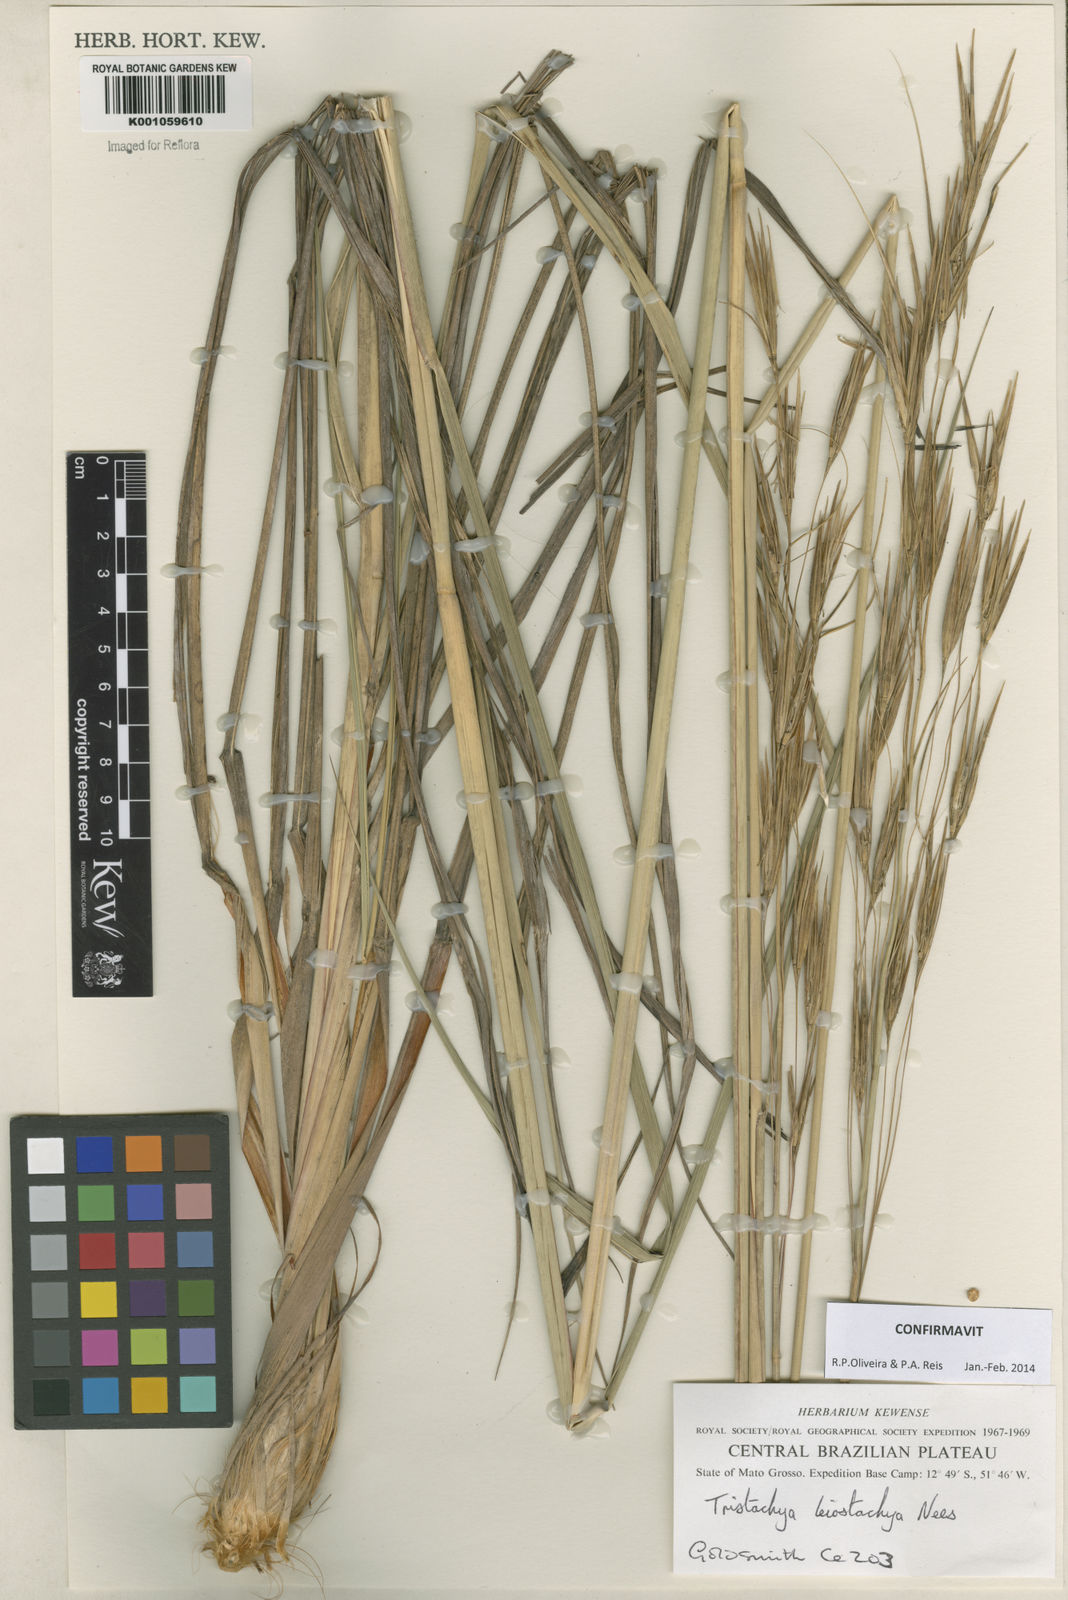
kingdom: Plantae
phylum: Tracheophyta
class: Liliopsida
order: Poales
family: Poaceae
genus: Tristachya
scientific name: Tristachya leiostachya
